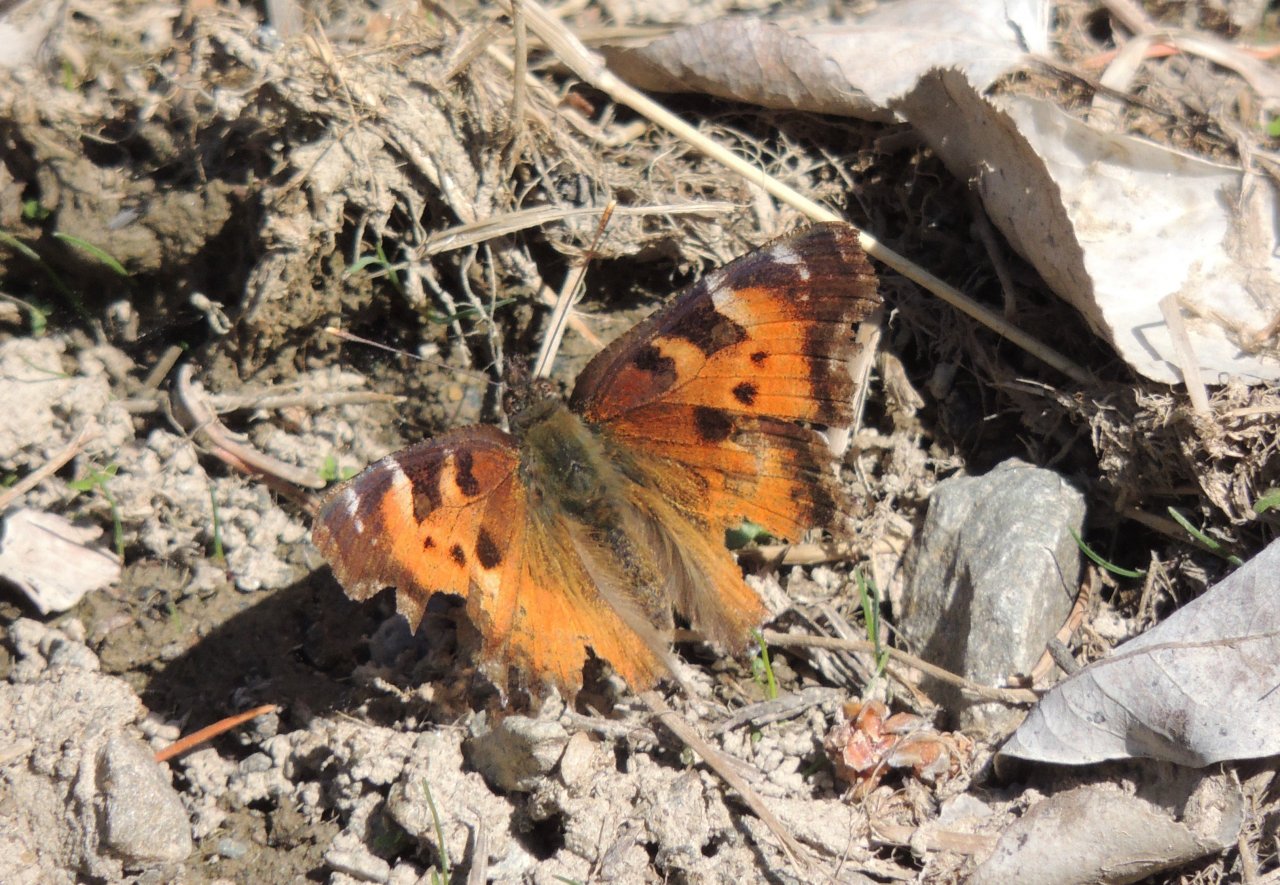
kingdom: Animalia
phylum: Arthropoda
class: Insecta
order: Lepidoptera
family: Nymphalidae
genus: Nymphalis
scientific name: Nymphalis californica
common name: California Tortoiseshell
